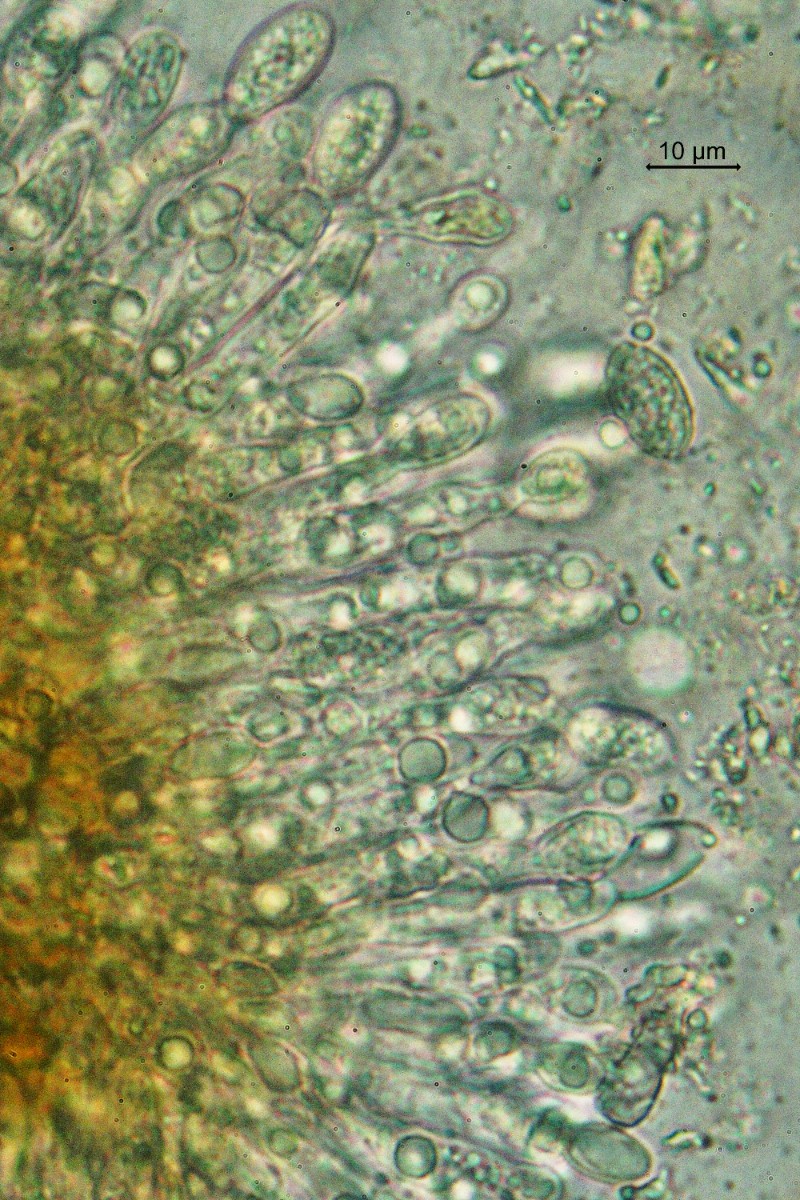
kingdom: Fungi
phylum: Ascomycota
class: Leotiomycetes
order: Helotiales
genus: Cryptocline
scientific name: Cryptocline taxicola
